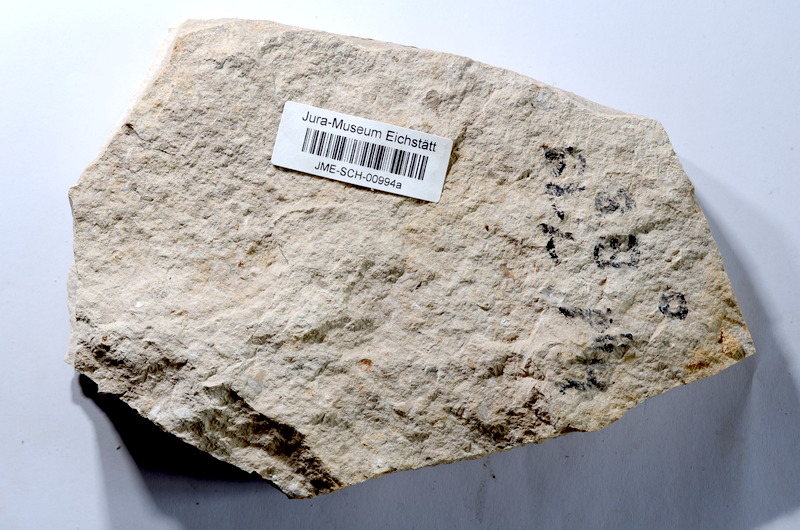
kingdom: Animalia
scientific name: Animalia
